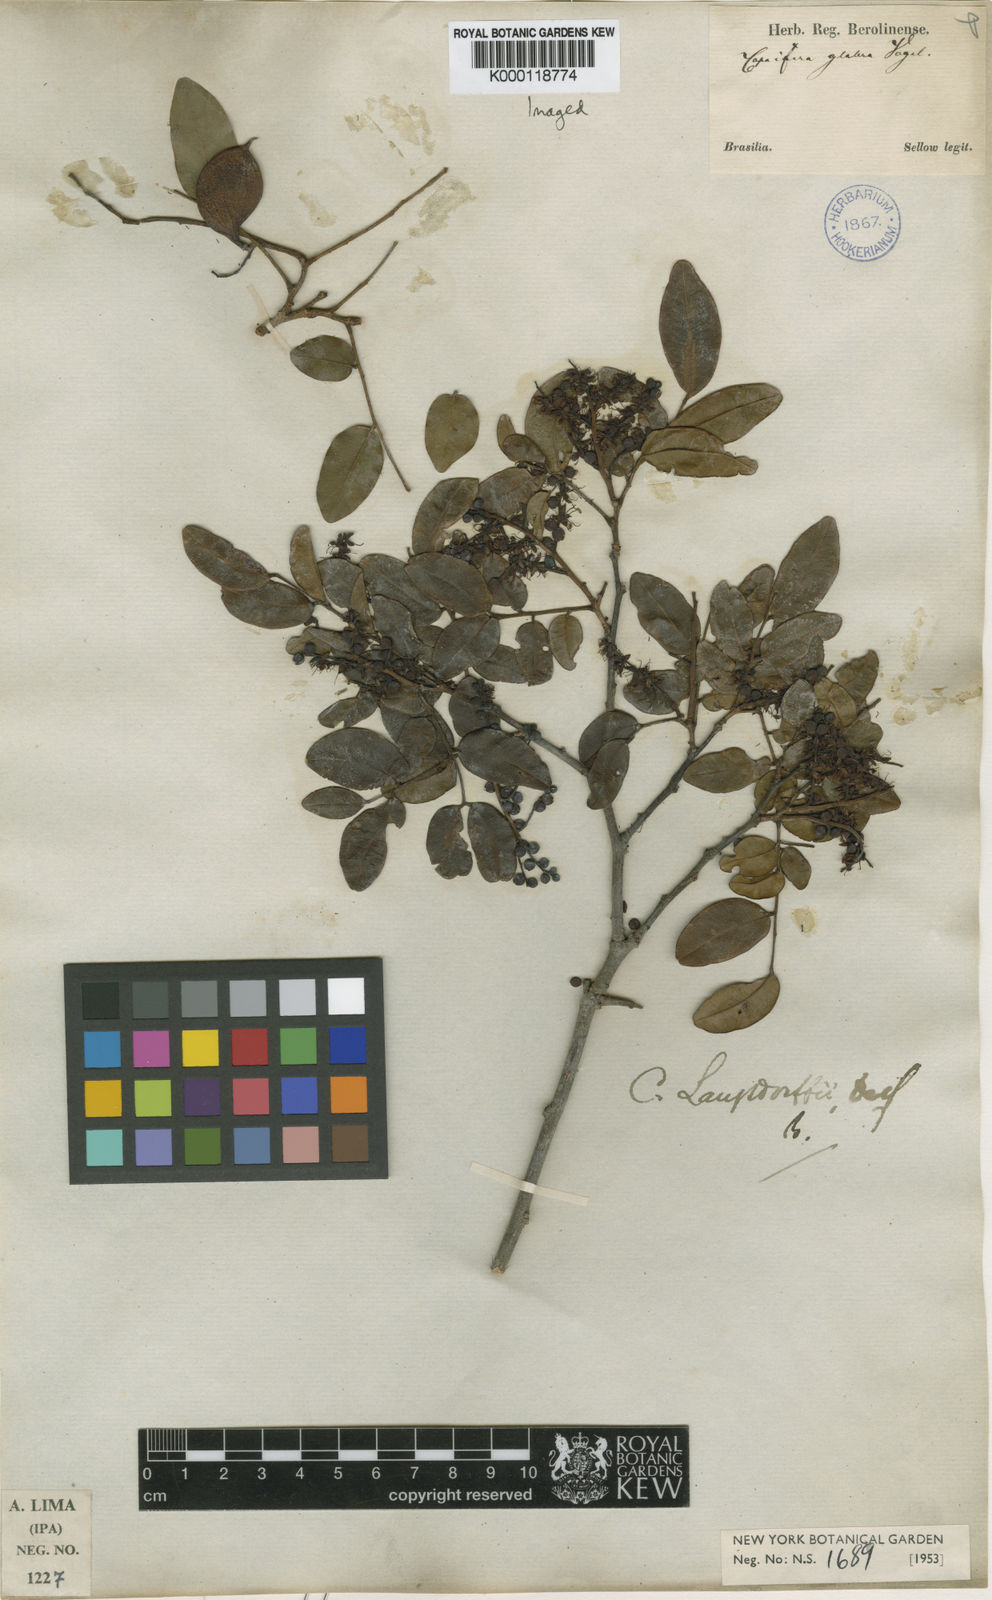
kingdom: Plantae
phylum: Tracheophyta
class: Magnoliopsida
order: Fabales
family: Fabaceae
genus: Copaifera
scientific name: Copaifera langsdorffii
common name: Brazilian diesel tree
